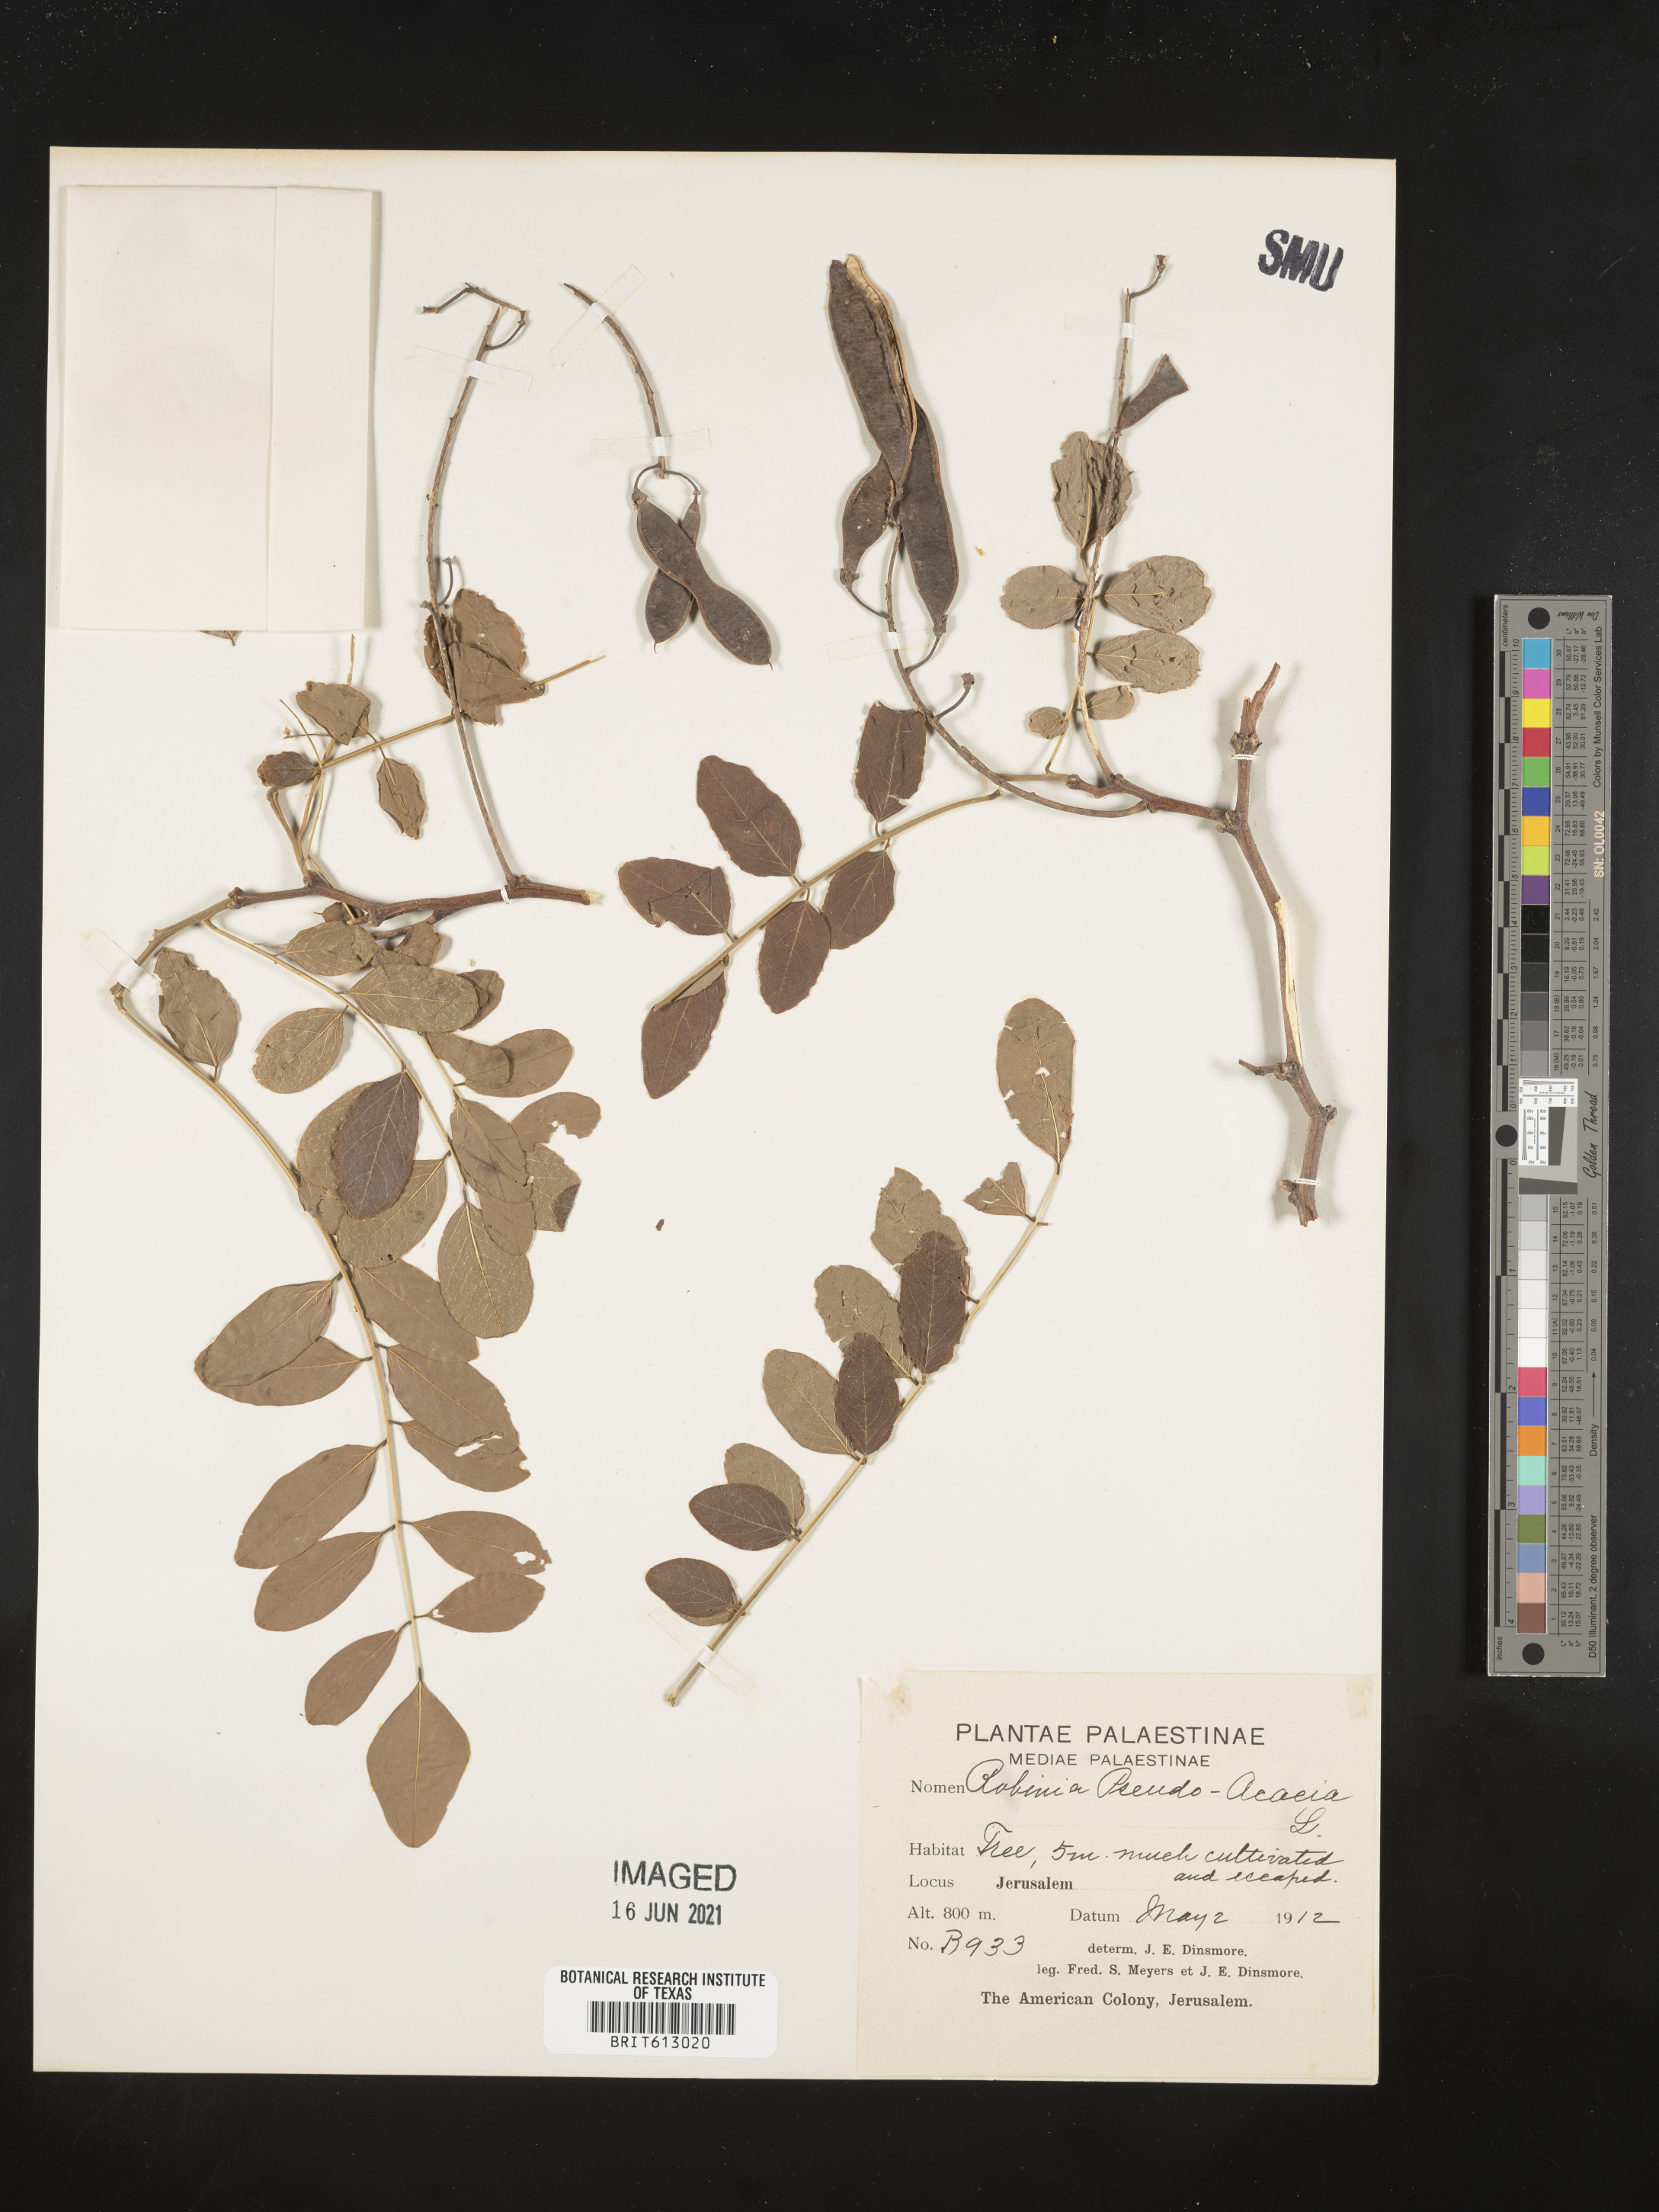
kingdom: Plantae
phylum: Tracheophyta
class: Magnoliopsida
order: Fabales
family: Fabaceae
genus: Robinia
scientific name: Robinia pseudoacacia
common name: Black locust
